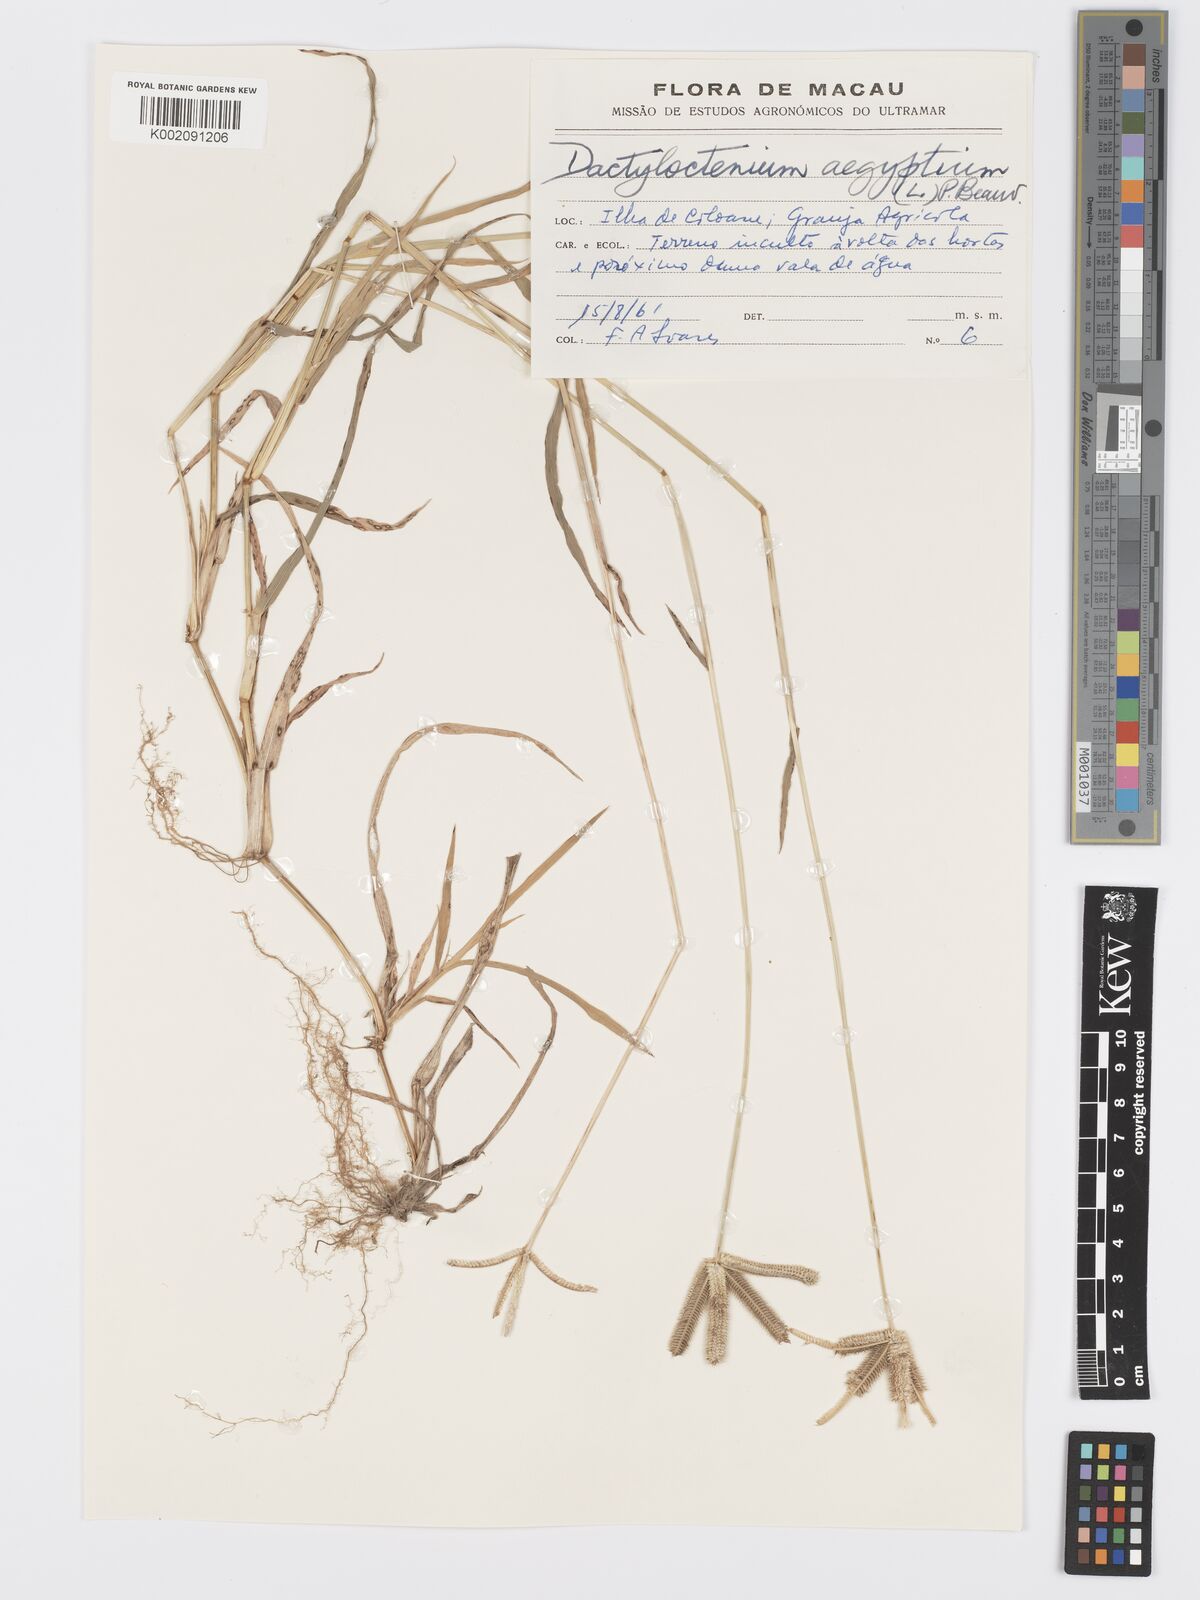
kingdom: Plantae
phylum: Tracheophyta
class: Liliopsida
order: Poales
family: Poaceae
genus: Dactyloctenium
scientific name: Dactyloctenium aegyptium
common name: Egyptian grass
